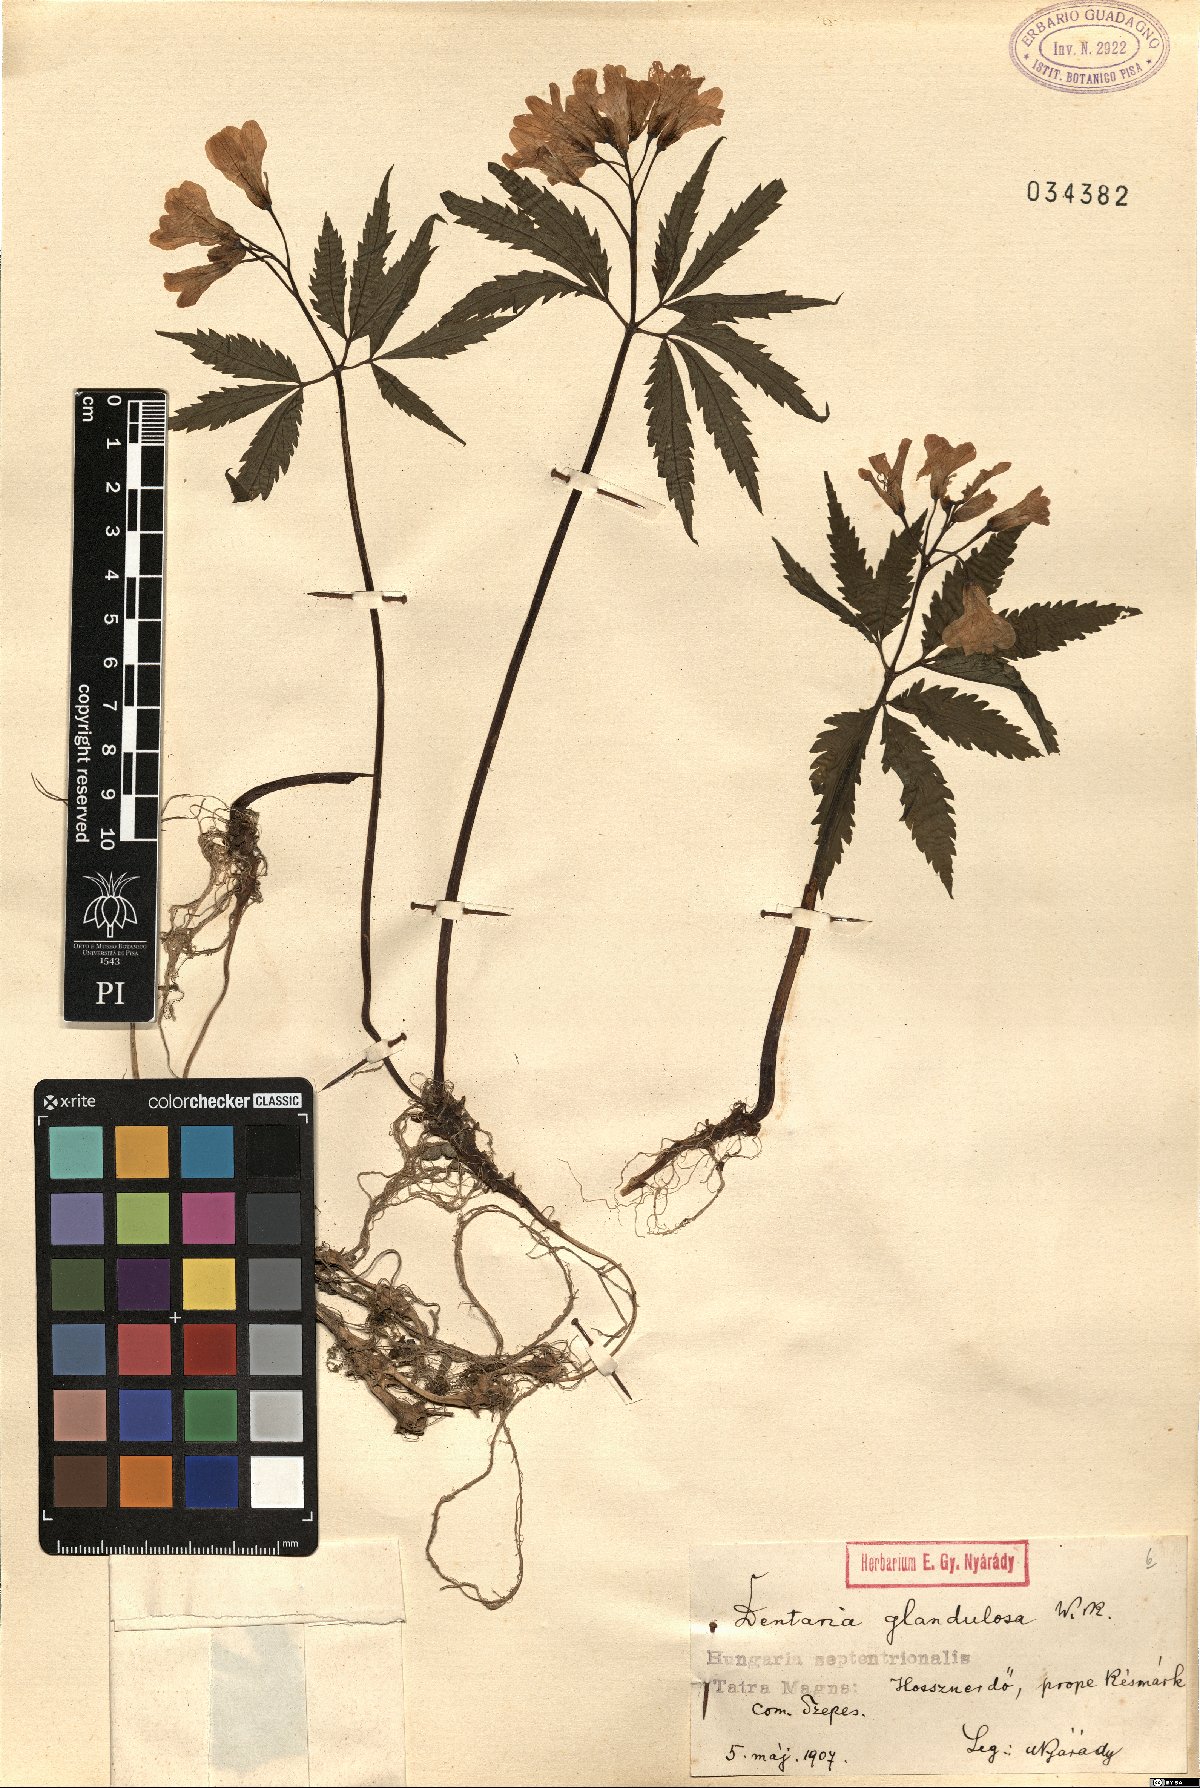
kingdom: Plantae
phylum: Tracheophyta
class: Magnoliopsida
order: Brassicales
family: Brassicaceae
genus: Cardamine
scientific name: Cardamine glanduligera
